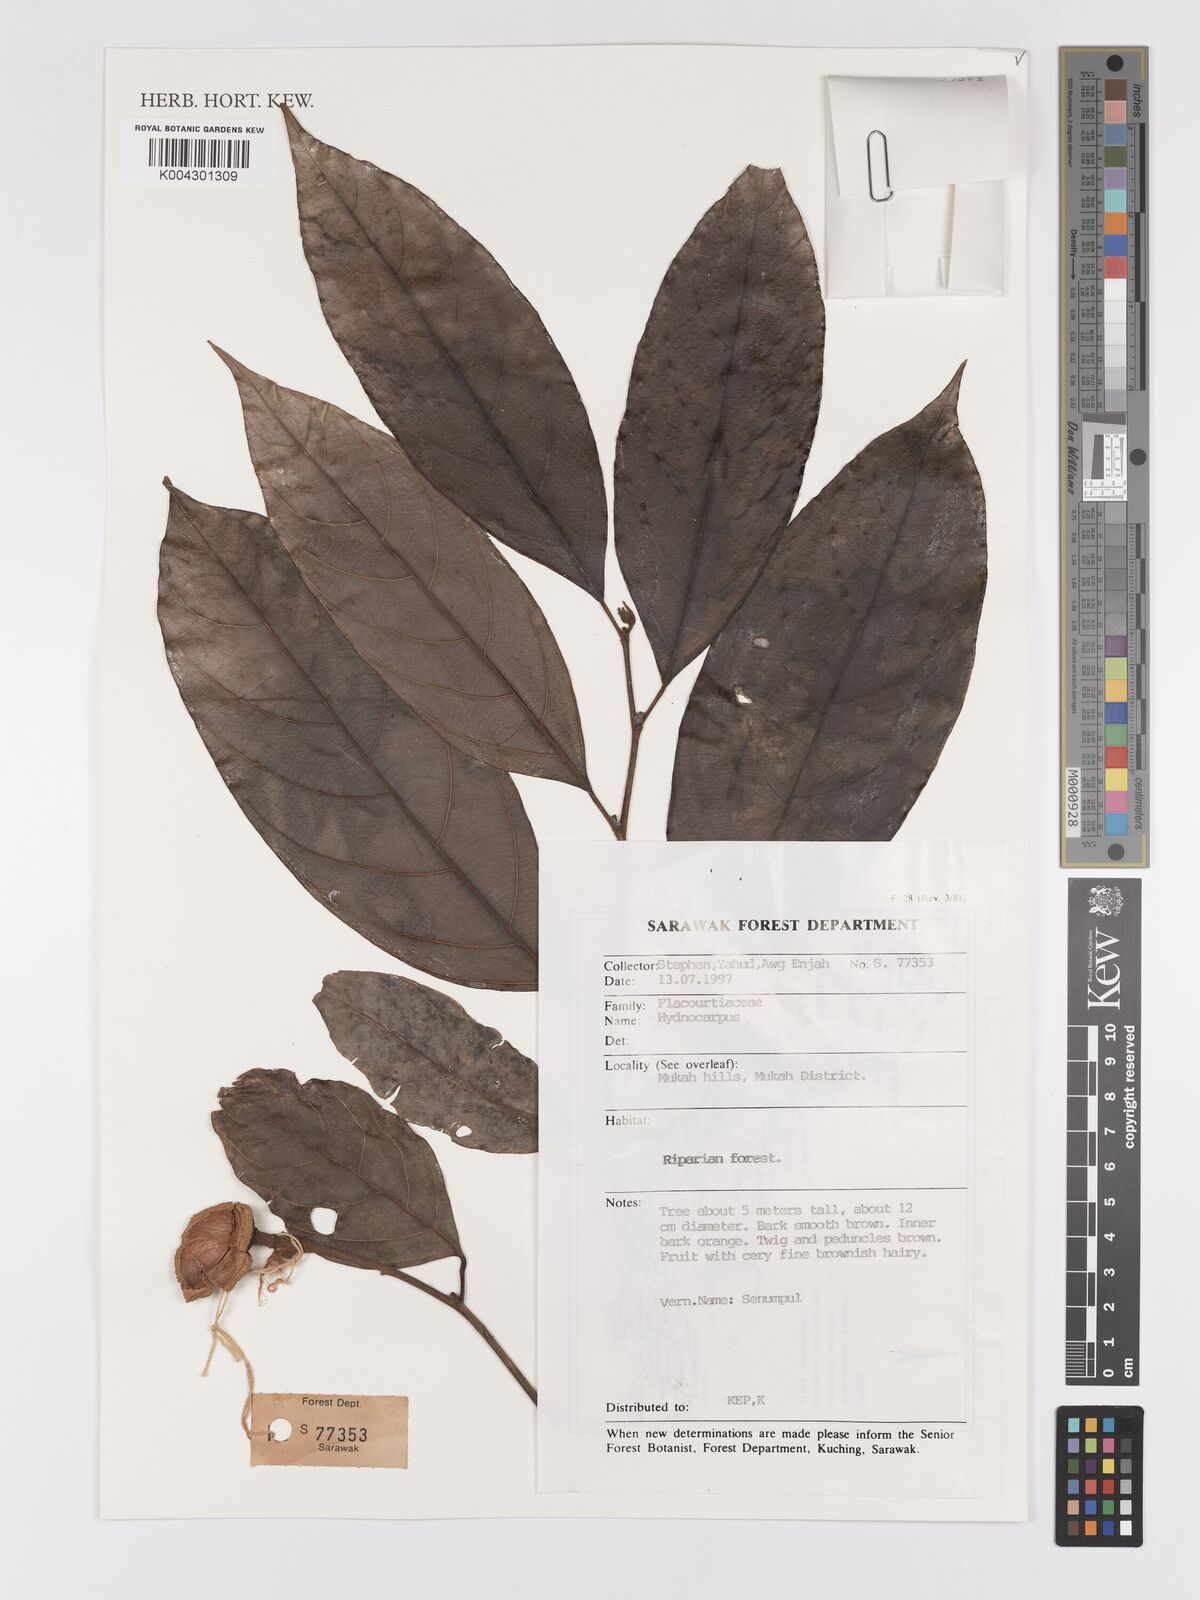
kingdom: Plantae
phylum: Tracheophyta
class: Magnoliopsida
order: Malpighiales
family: Achariaceae
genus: Hydnocarpus
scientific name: Hydnocarpus
